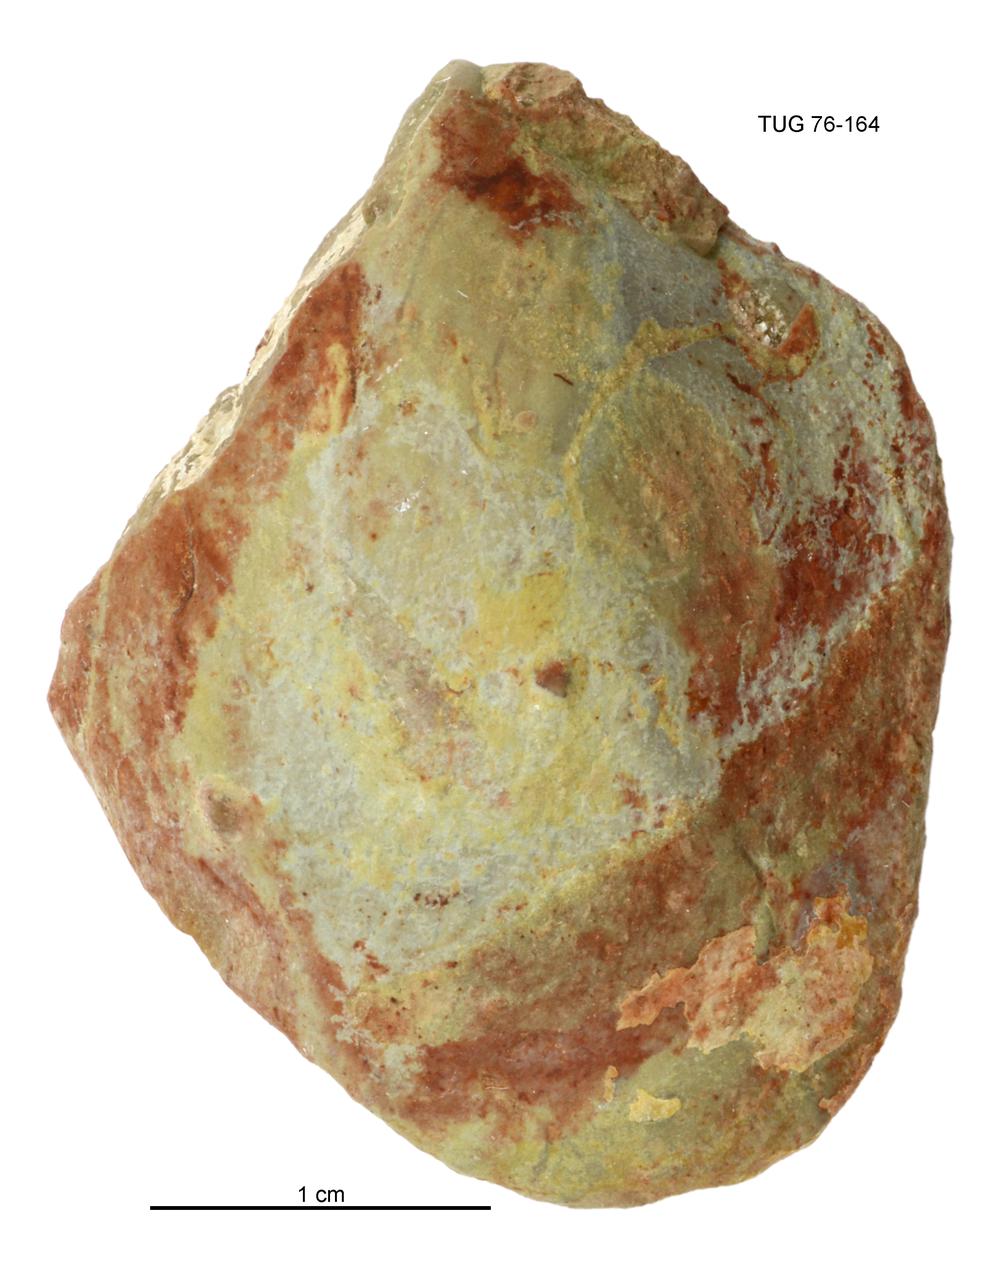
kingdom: Animalia
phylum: Mollusca
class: Bivalvia
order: Cyrtodontida
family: Cyrtodontidae
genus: Cypricardites
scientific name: Cypricardites
